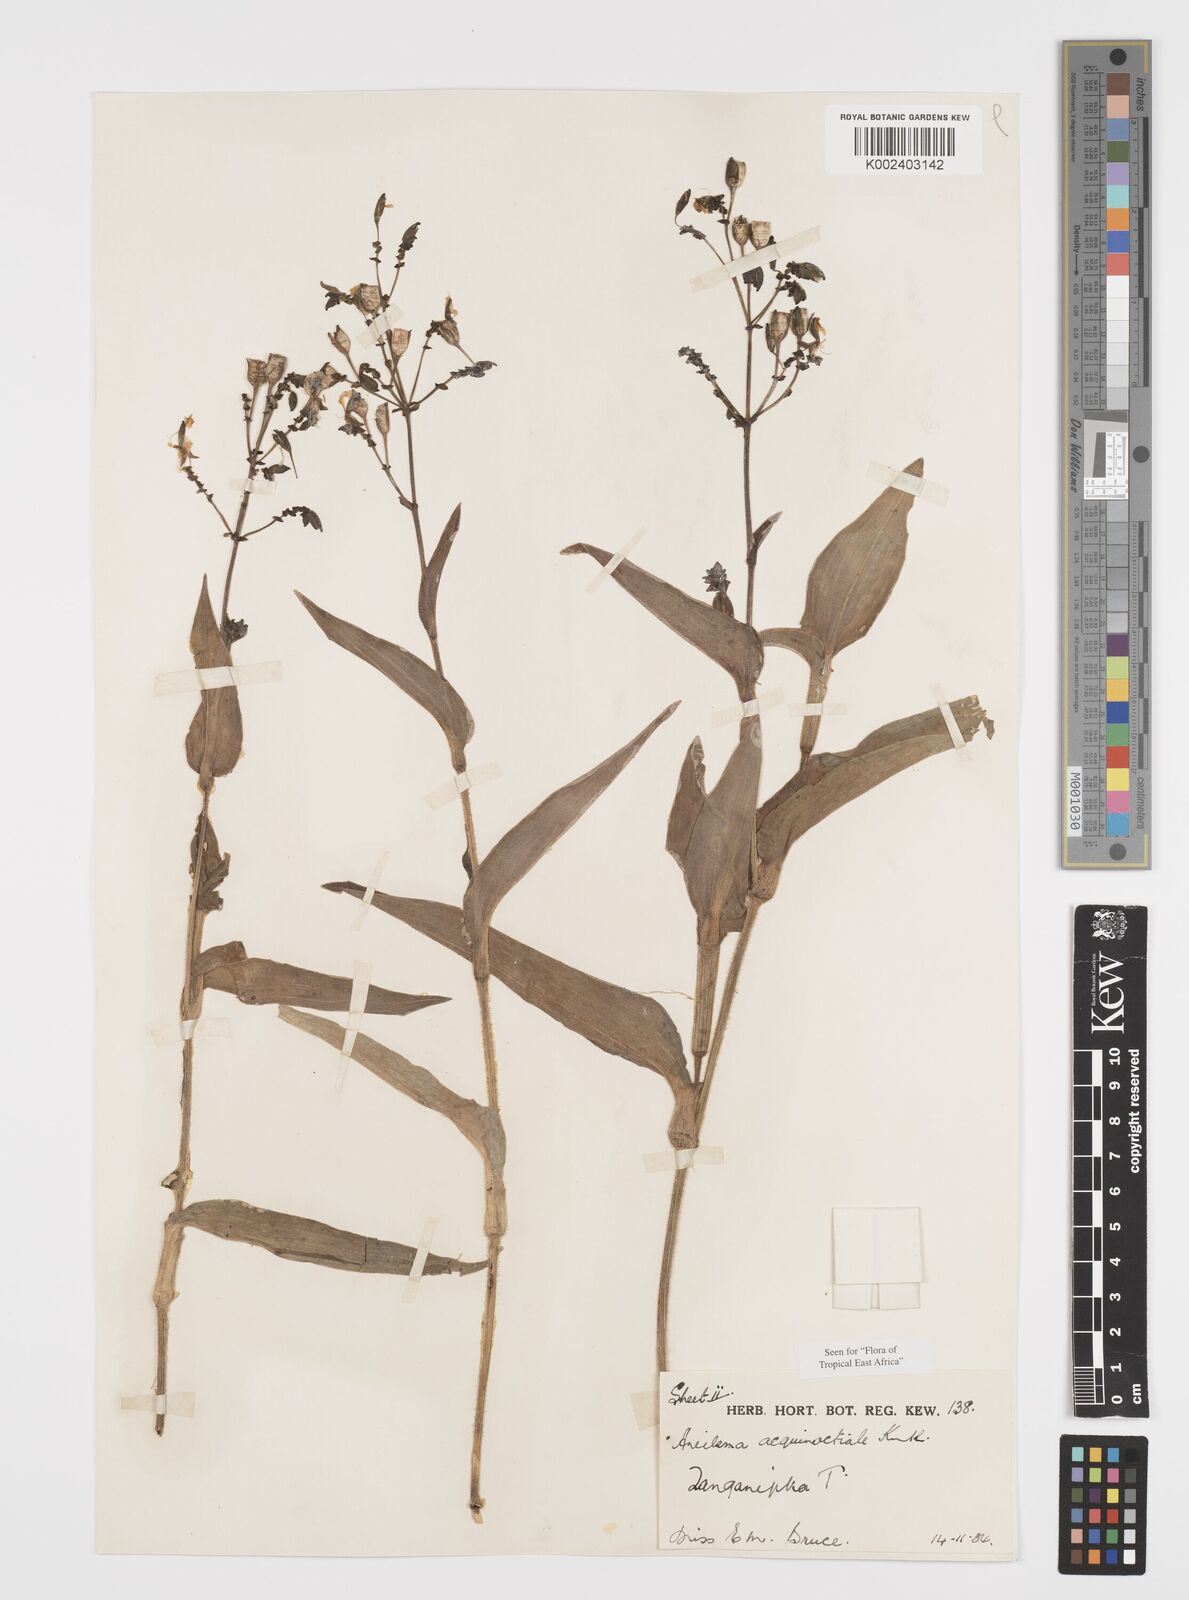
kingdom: Plantae
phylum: Tracheophyta
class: Liliopsida
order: Commelinales
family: Commelinaceae
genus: Aneilema
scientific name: Aneilema aequinoctiale
